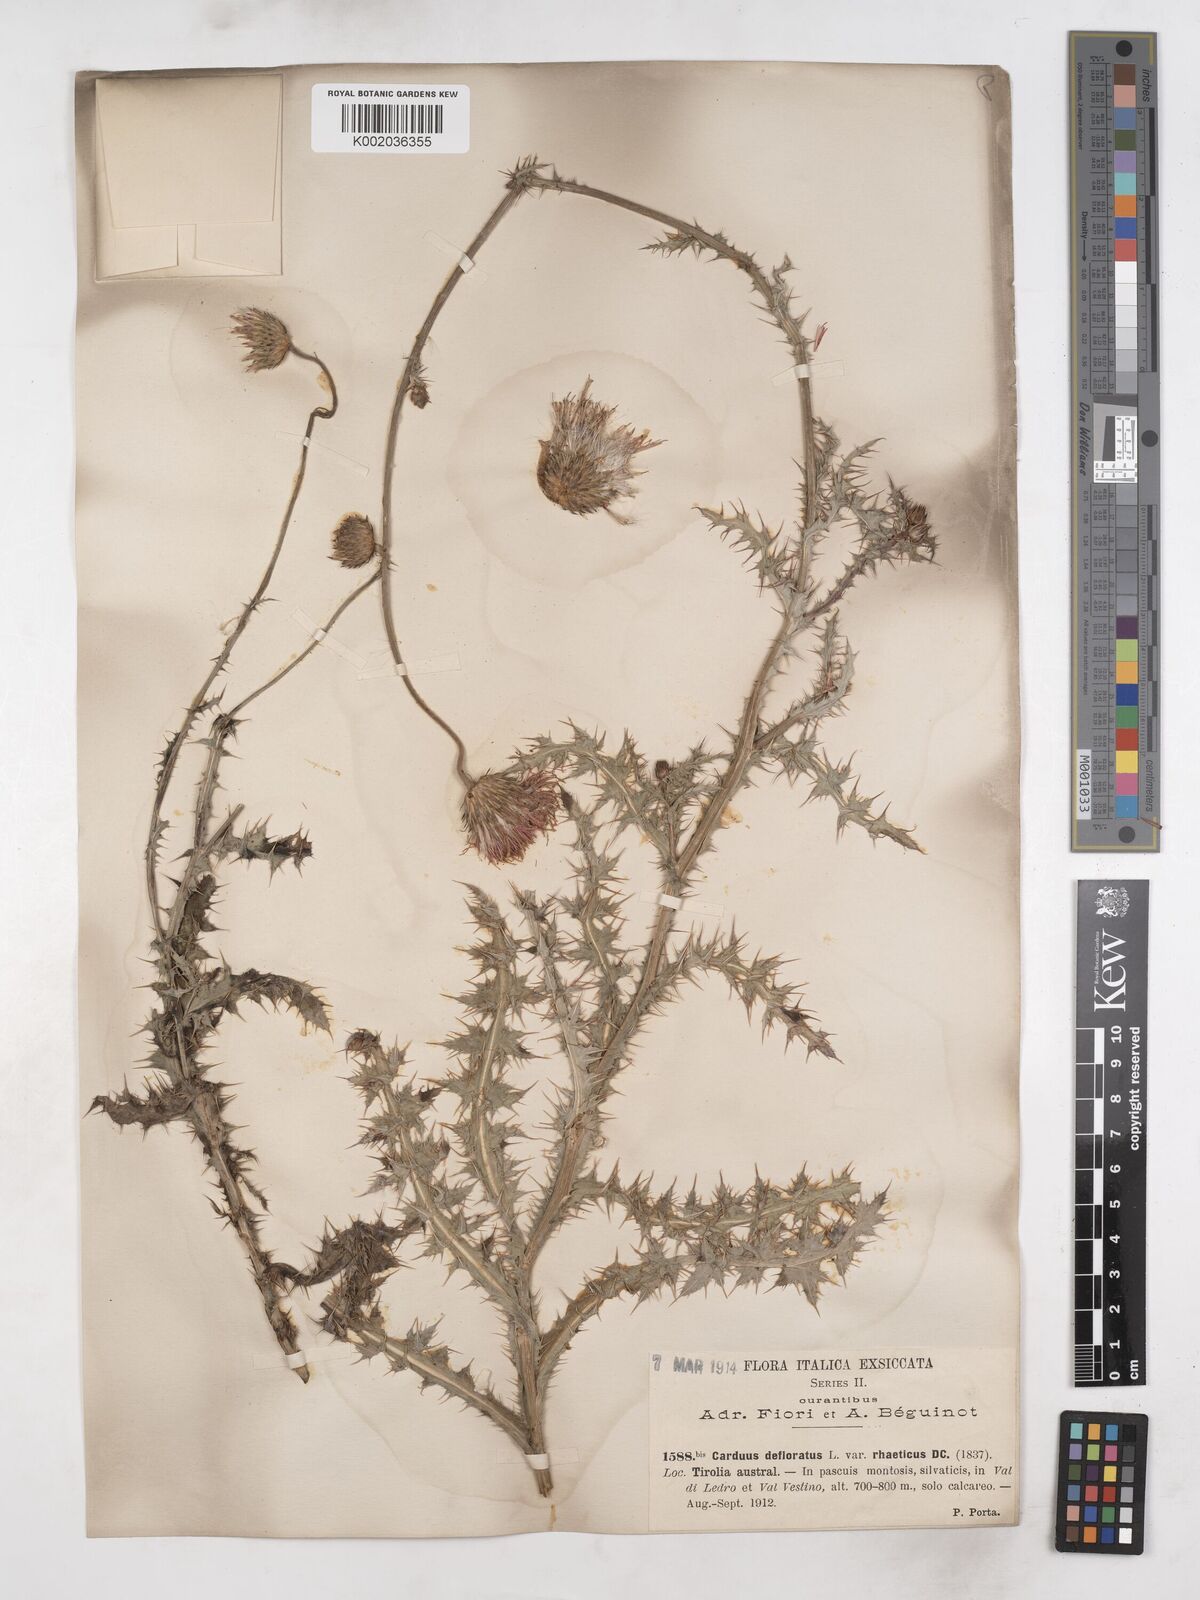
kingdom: Plantae
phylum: Tracheophyta
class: Magnoliopsida
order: Asterales
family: Asteraceae
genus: Carduus
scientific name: Carduus defloratus
